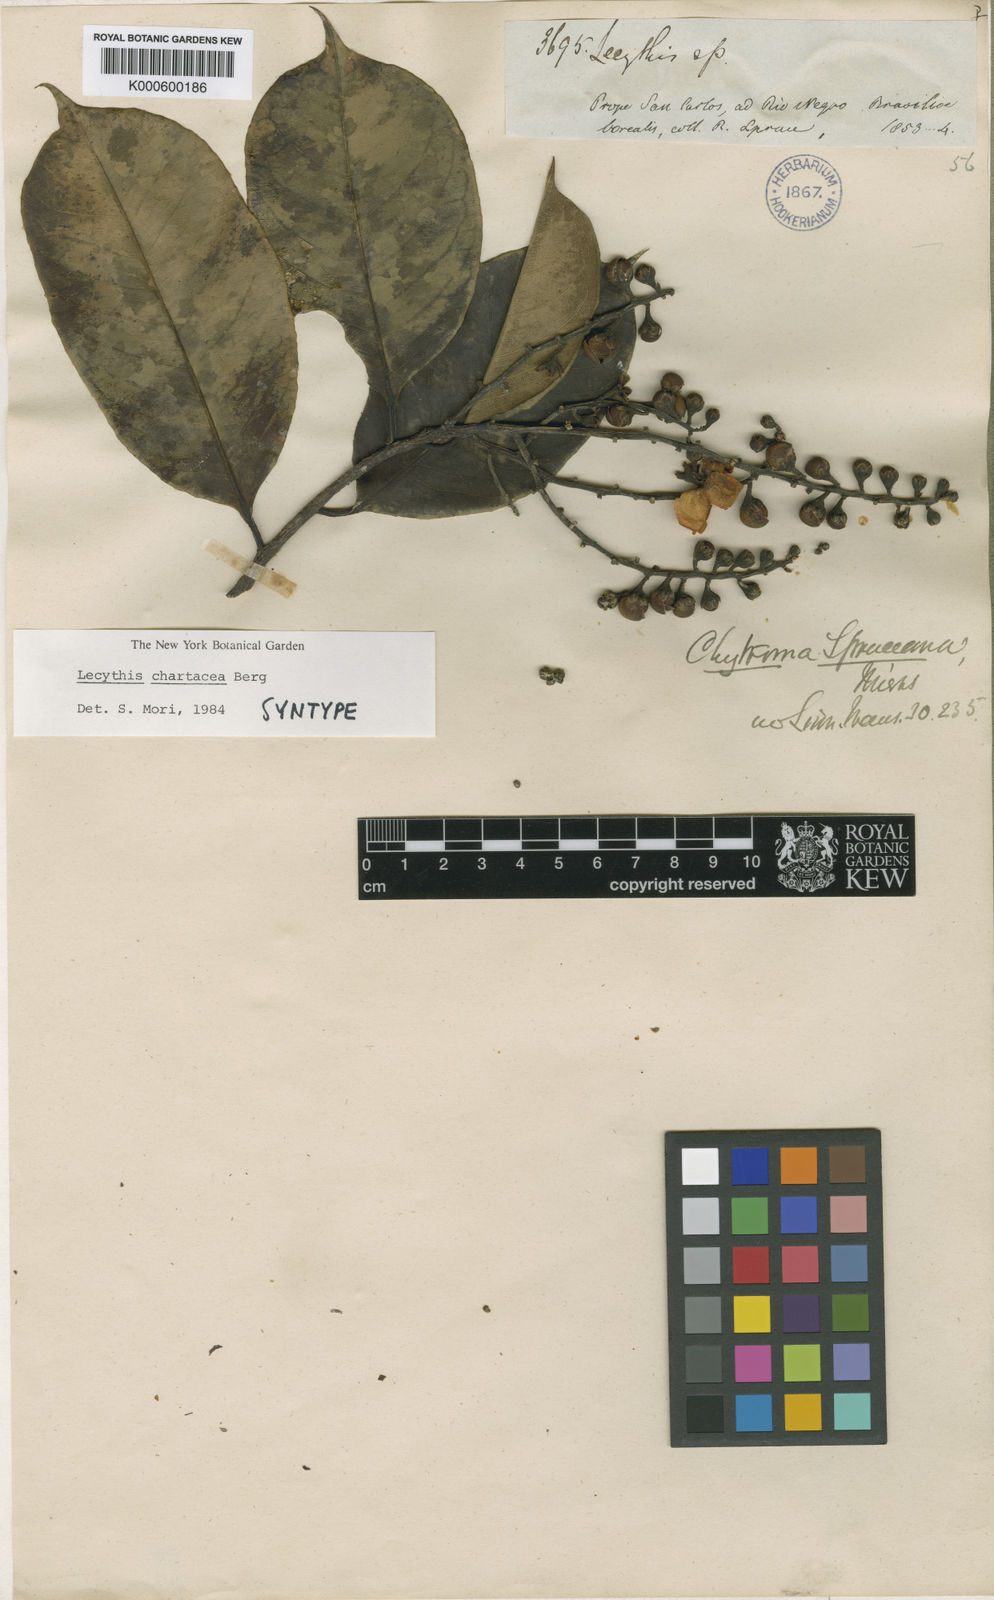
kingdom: Plantae
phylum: Tracheophyta
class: Magnoliopsida
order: Ericales
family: Lecythidaceae
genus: Lecythis
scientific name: Lecythis chartacea
